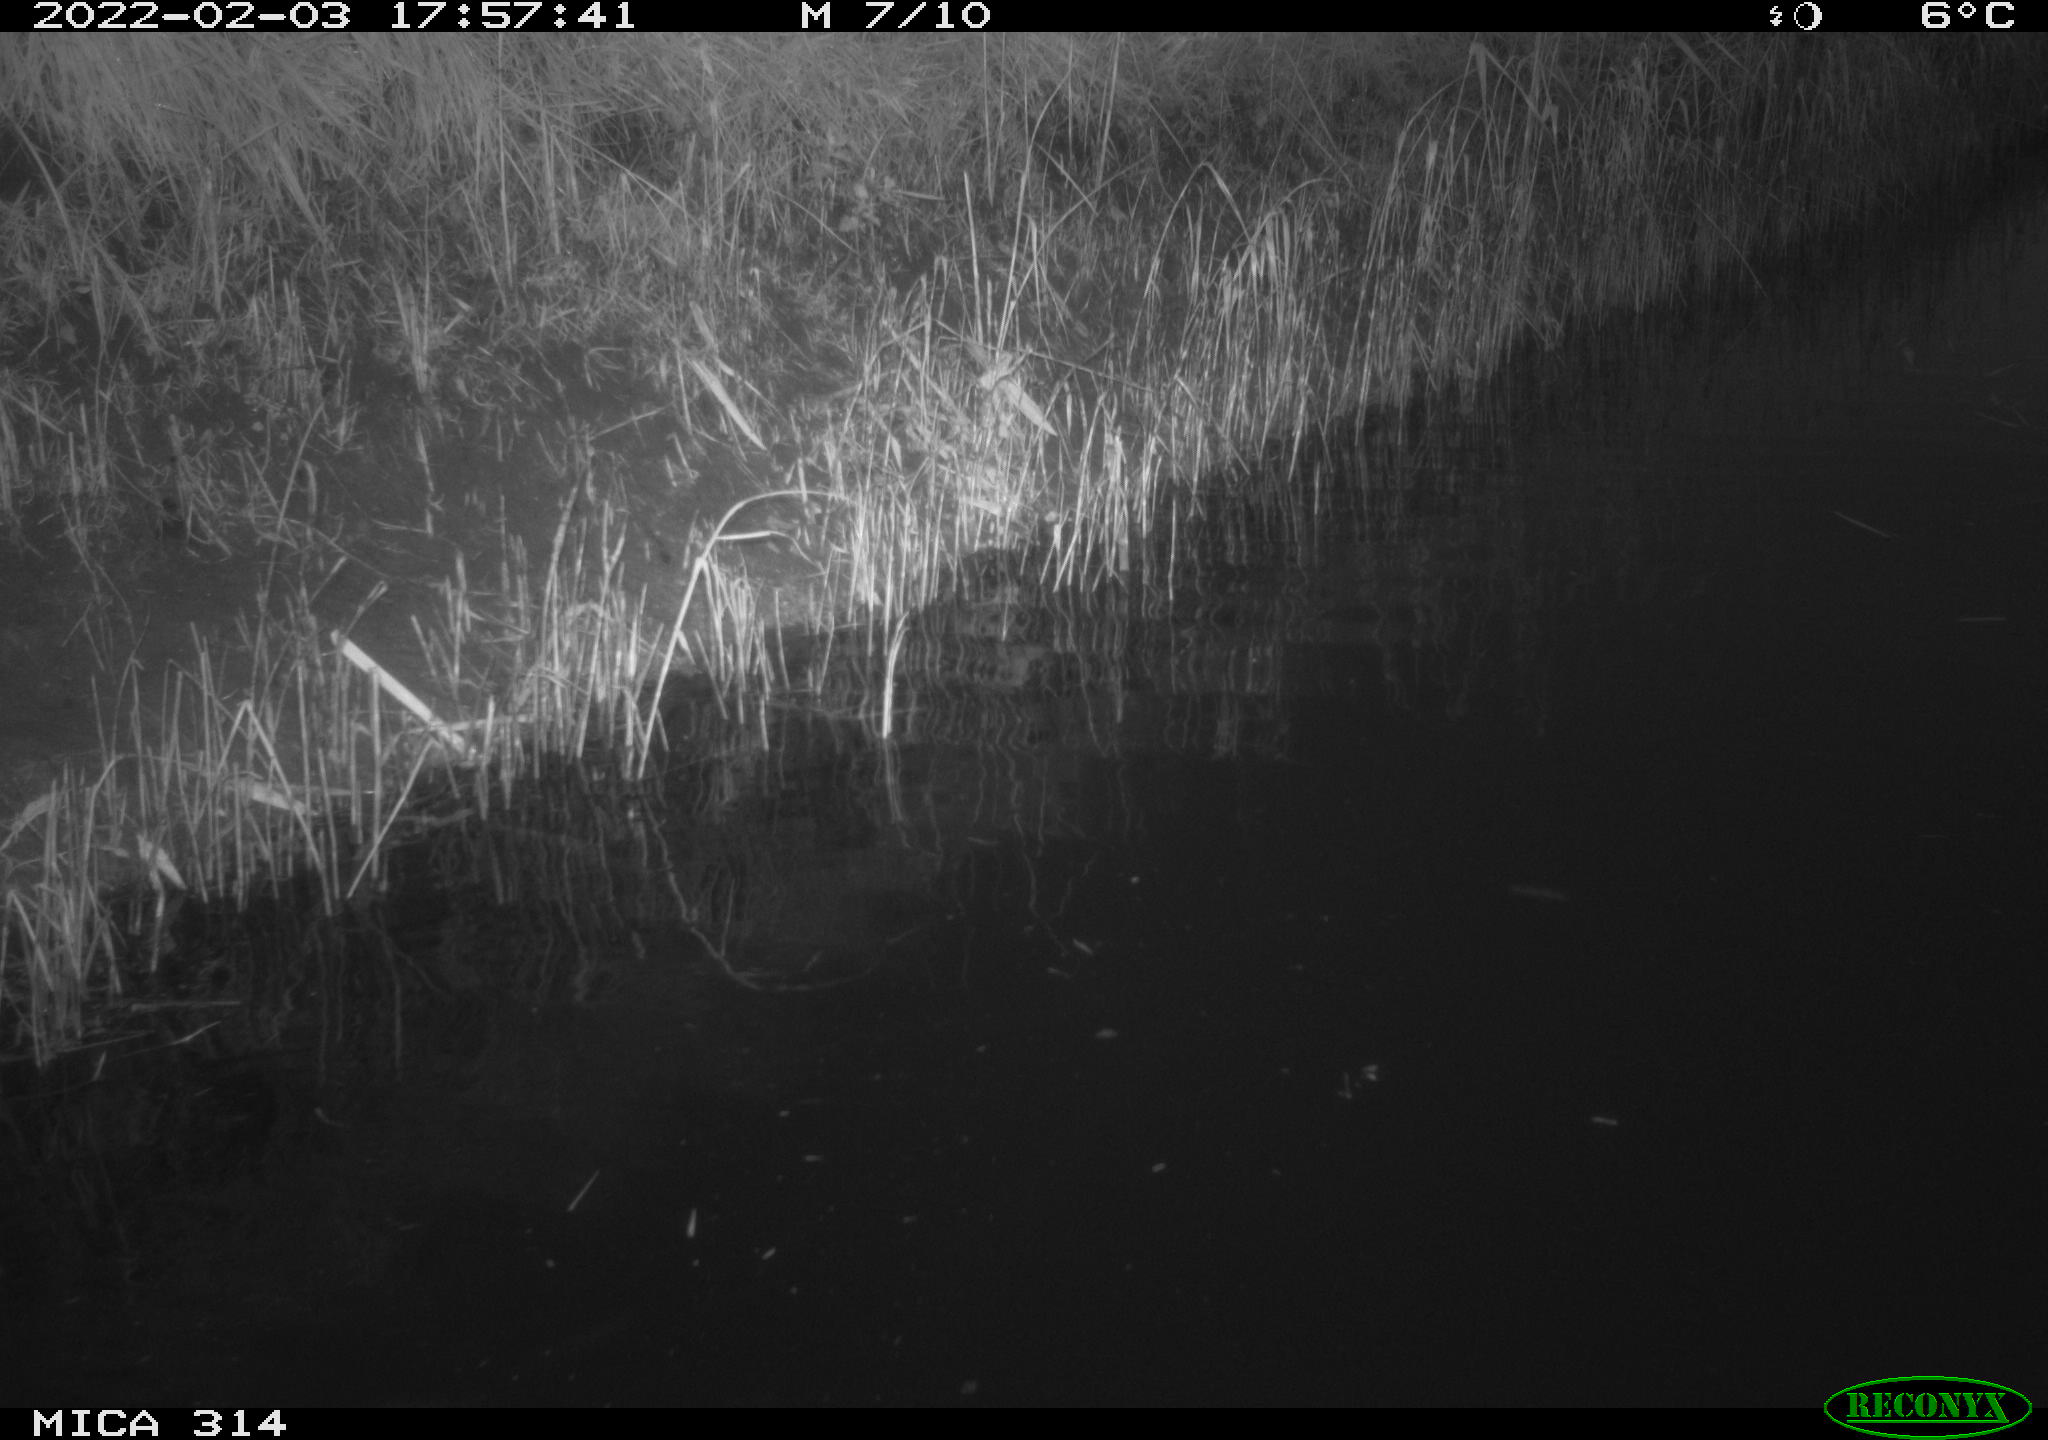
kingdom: Animalia
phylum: Chordata
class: Aves
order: Gruiformes
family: Rallidae
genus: Gallinula
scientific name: Gallinula chloropus
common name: Common moorhen
